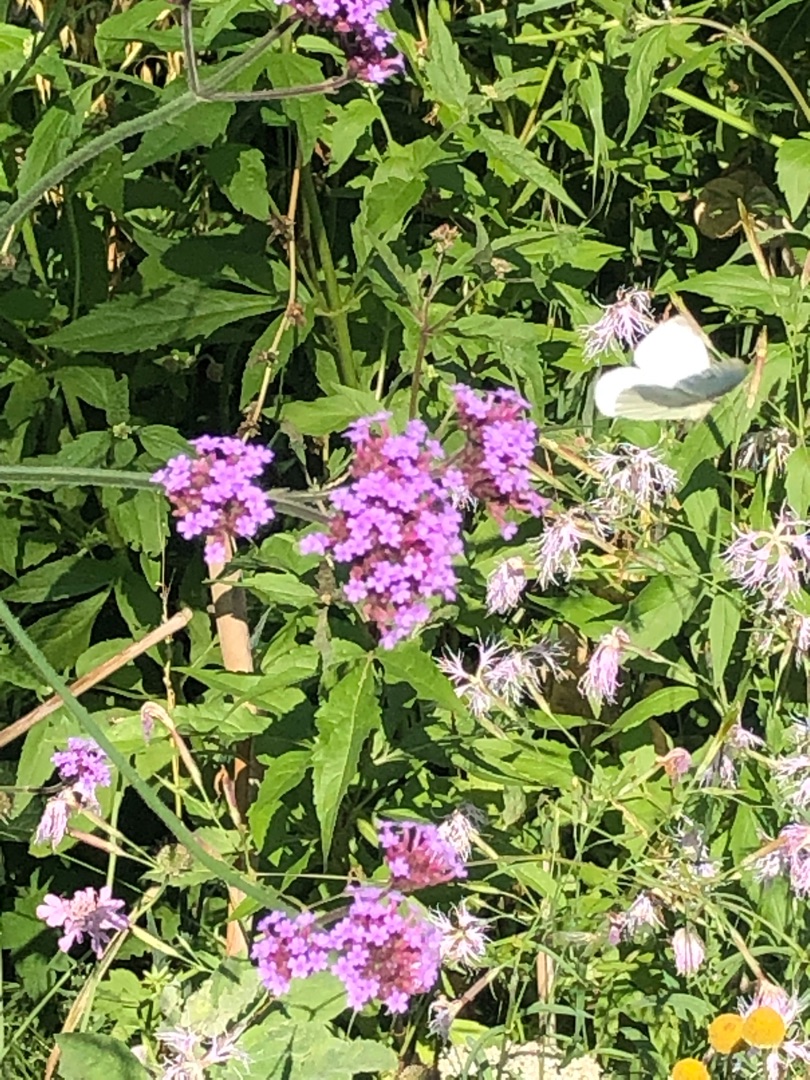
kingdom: Animalia
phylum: Arthropoda
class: Insecta
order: Lepidoptera
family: Pieridae
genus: Pieris
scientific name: Pieris rapae
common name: Lille kålsommerfugl
